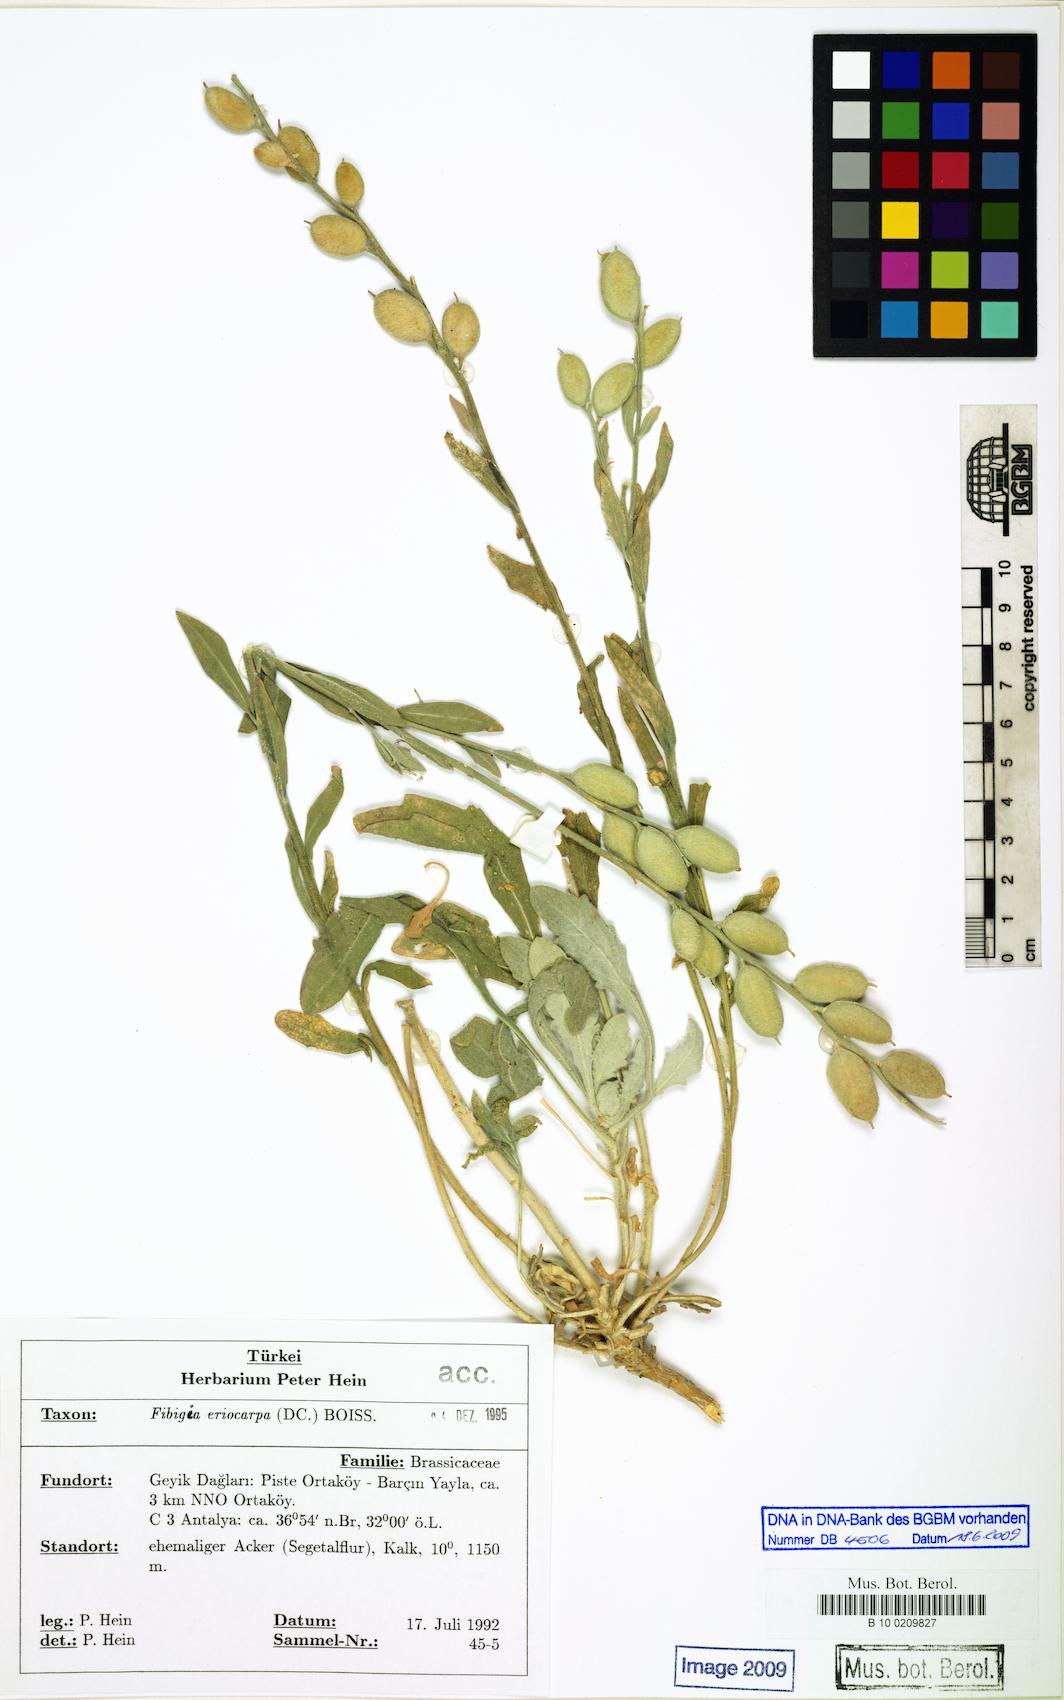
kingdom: Plantae
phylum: Tracheophyta
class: Magnoliopsida
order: Brassicales
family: Brassicaceae
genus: Fibigia
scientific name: Fibigia clypeata
